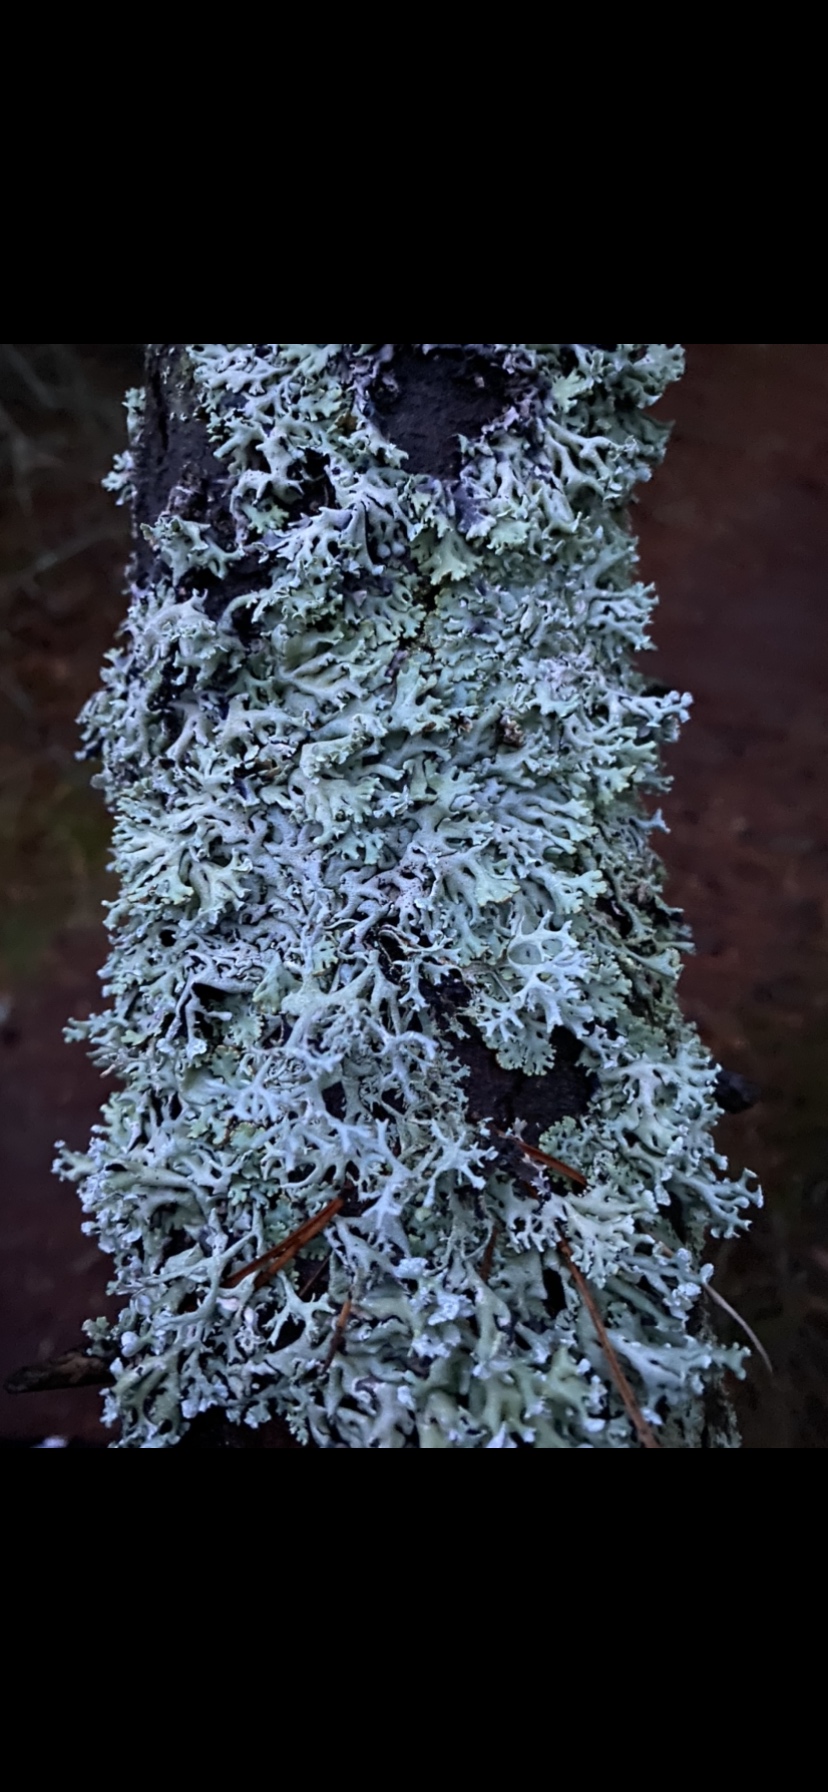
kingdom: Fungi
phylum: Ascomycota
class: Lecanoromycetes
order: Lecanorales
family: Parmeliaceae
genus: Hypogymnia
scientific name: Hypogymnia physodes
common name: almindelig kvistlav
